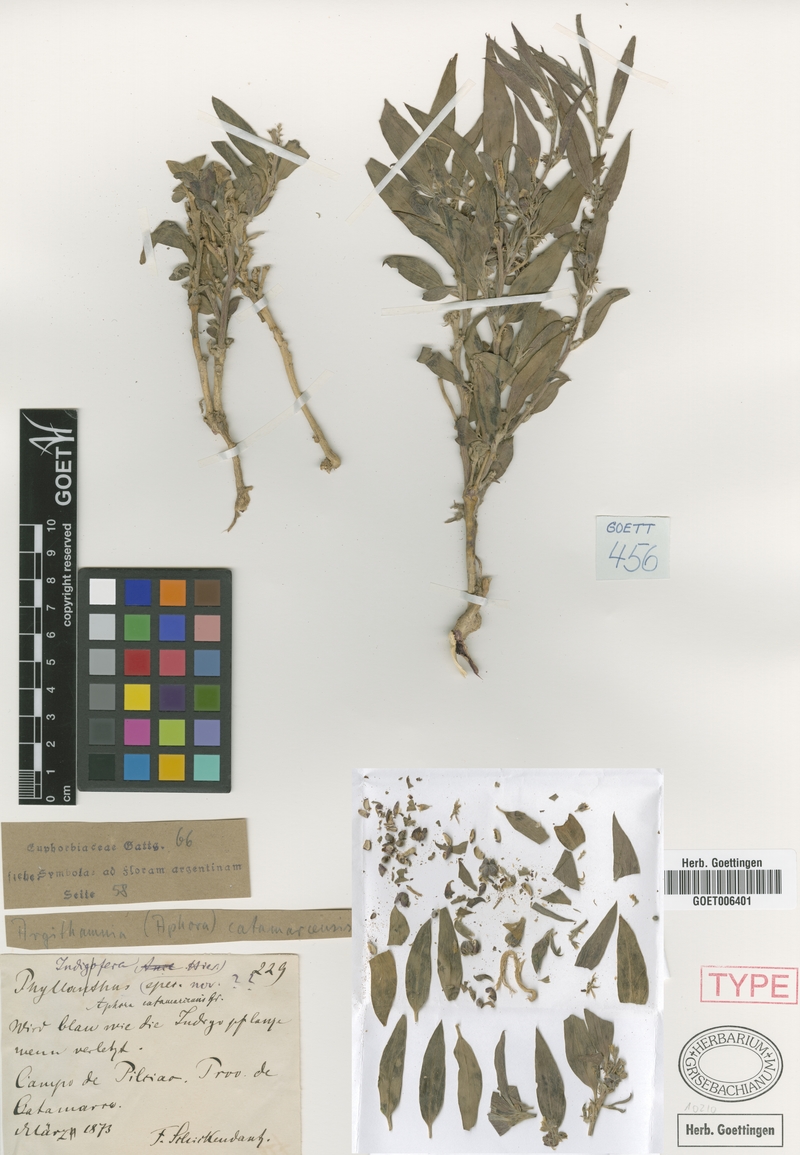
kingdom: Plantae
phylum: Tracheophyta
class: Magnoliopsida
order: Malpighiales
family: Euphorbiaceae
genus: Ditaxis
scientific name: Ditaxis catamarcensis
